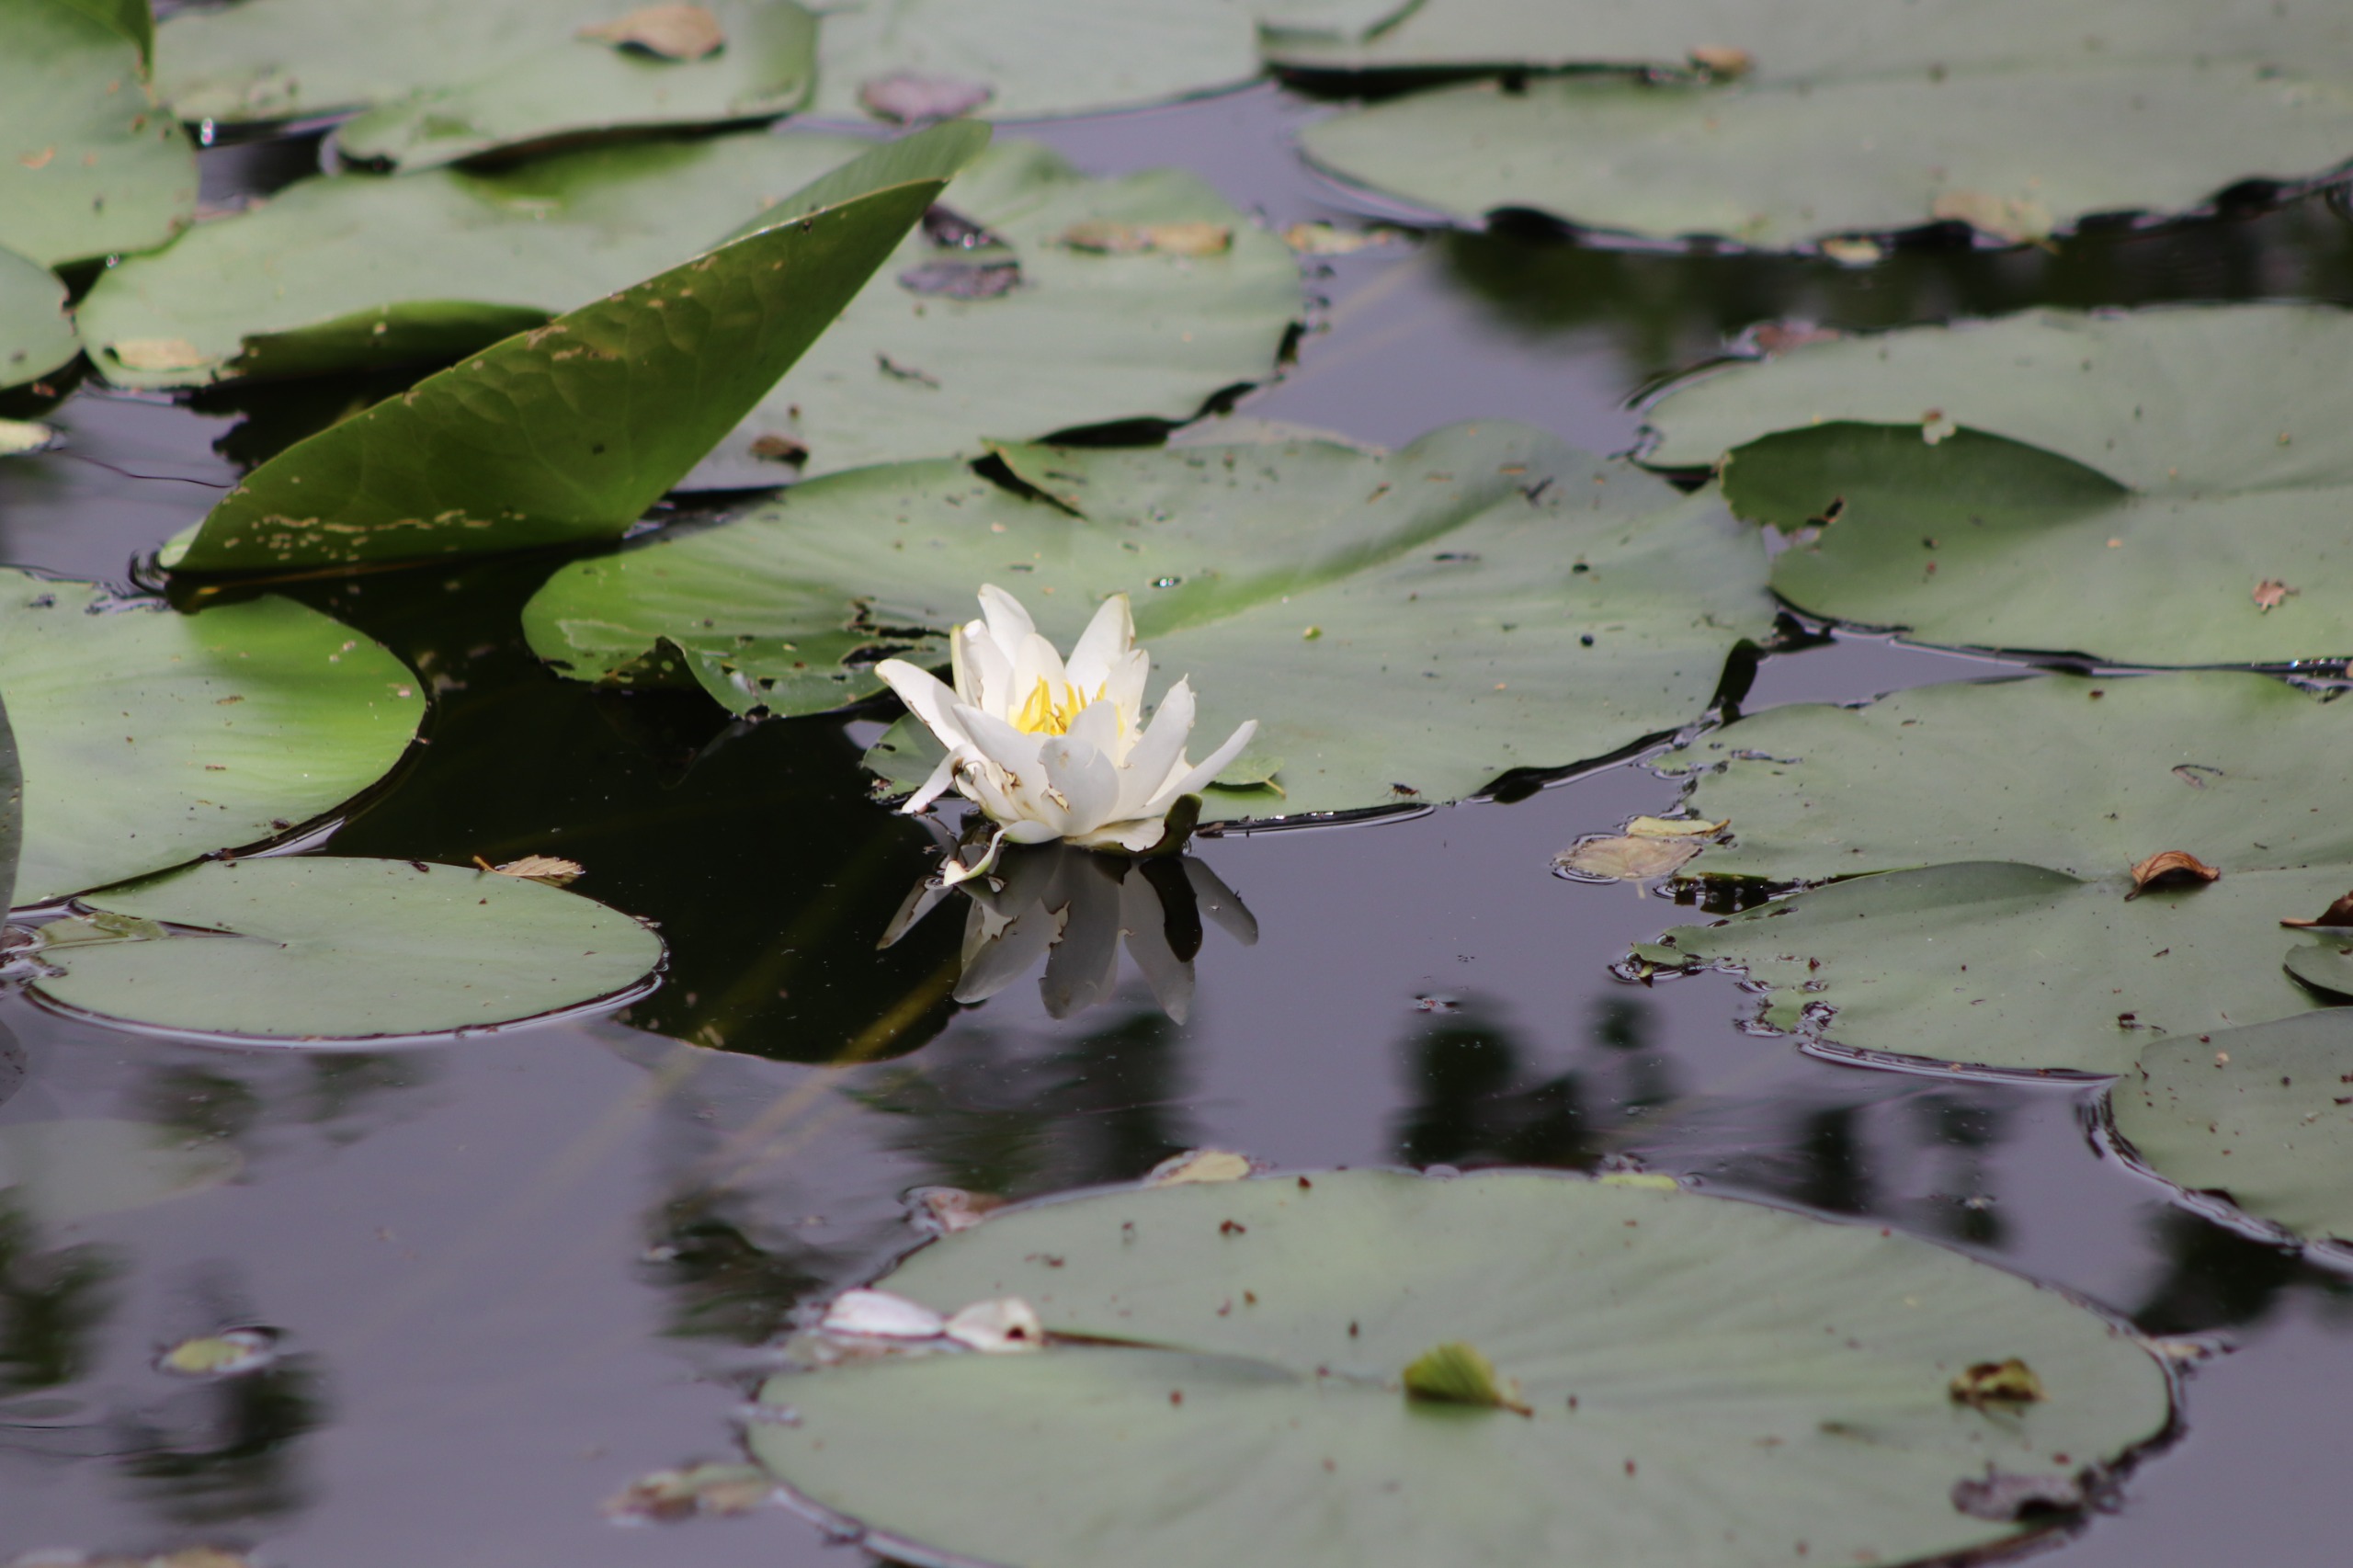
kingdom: Plantae
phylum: Tracheophyta
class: Magnoliopsida
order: Nymphaeales
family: Nymphaeaceae
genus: Nymphaea
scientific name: Nymphaea alba
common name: Hvid åkande
